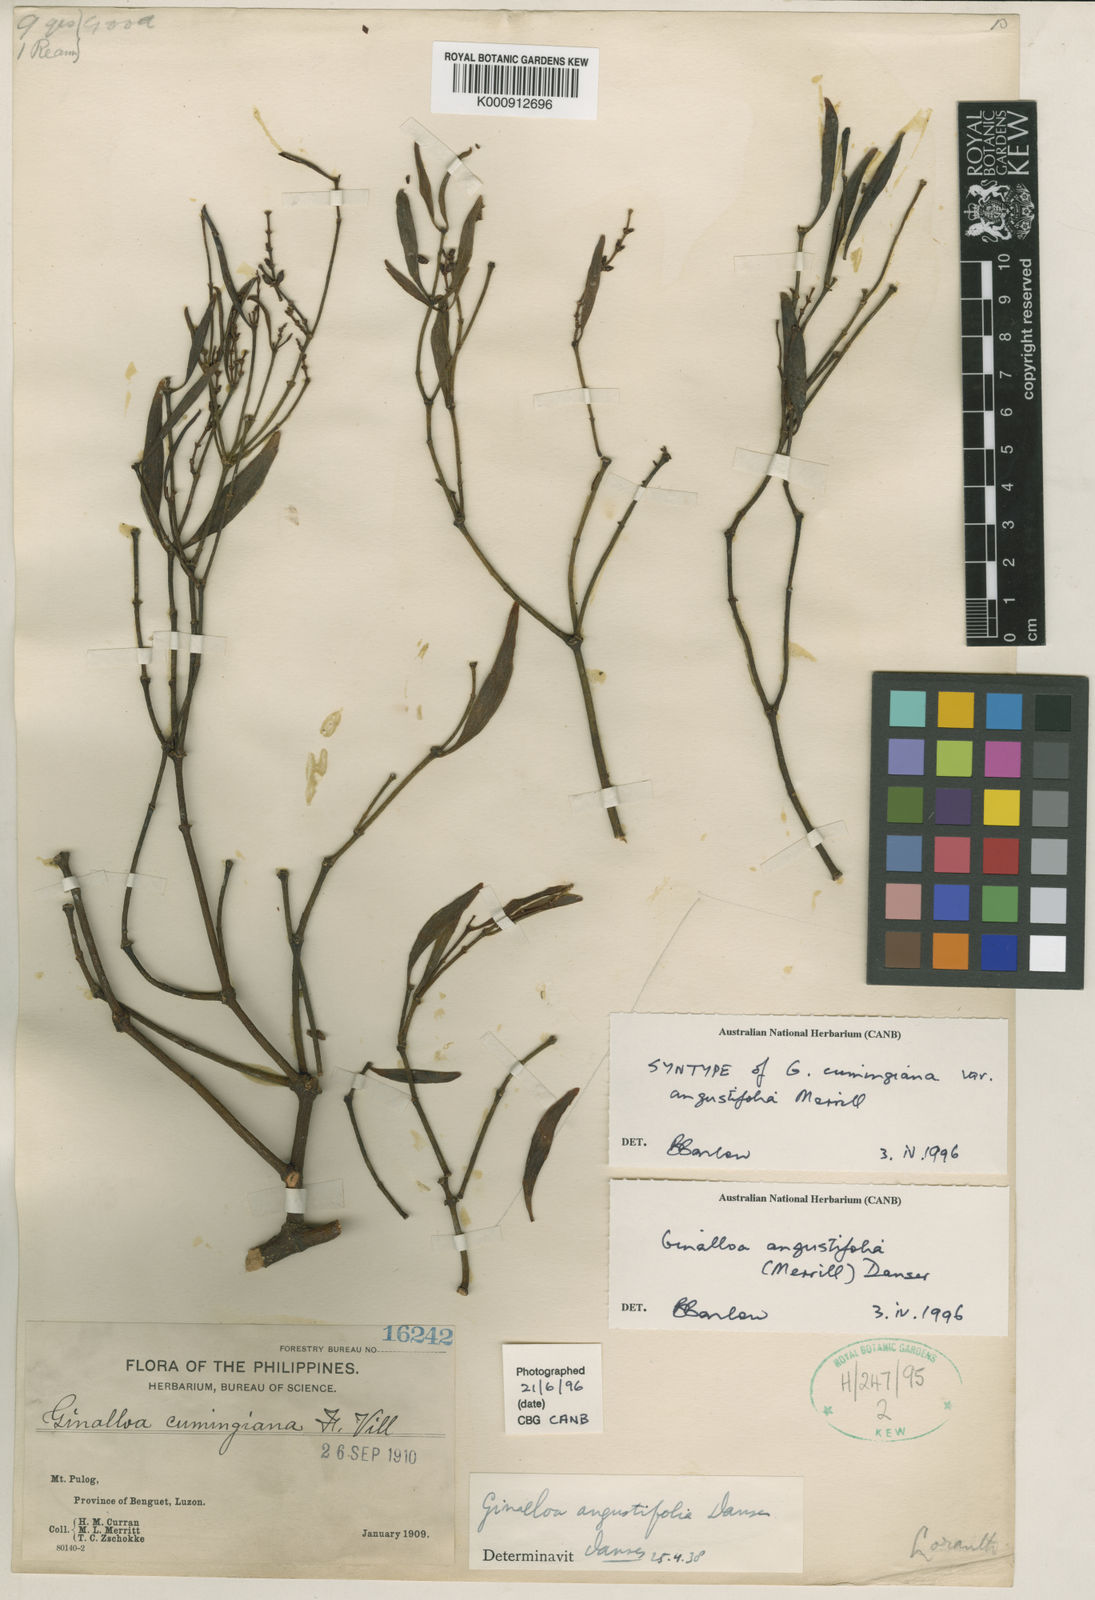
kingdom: Plantae
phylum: Tracheophyta
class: Magnoliopsida
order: Santalales
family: Viscaceae
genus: Ginalloa
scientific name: Ginalloa angustifolia
